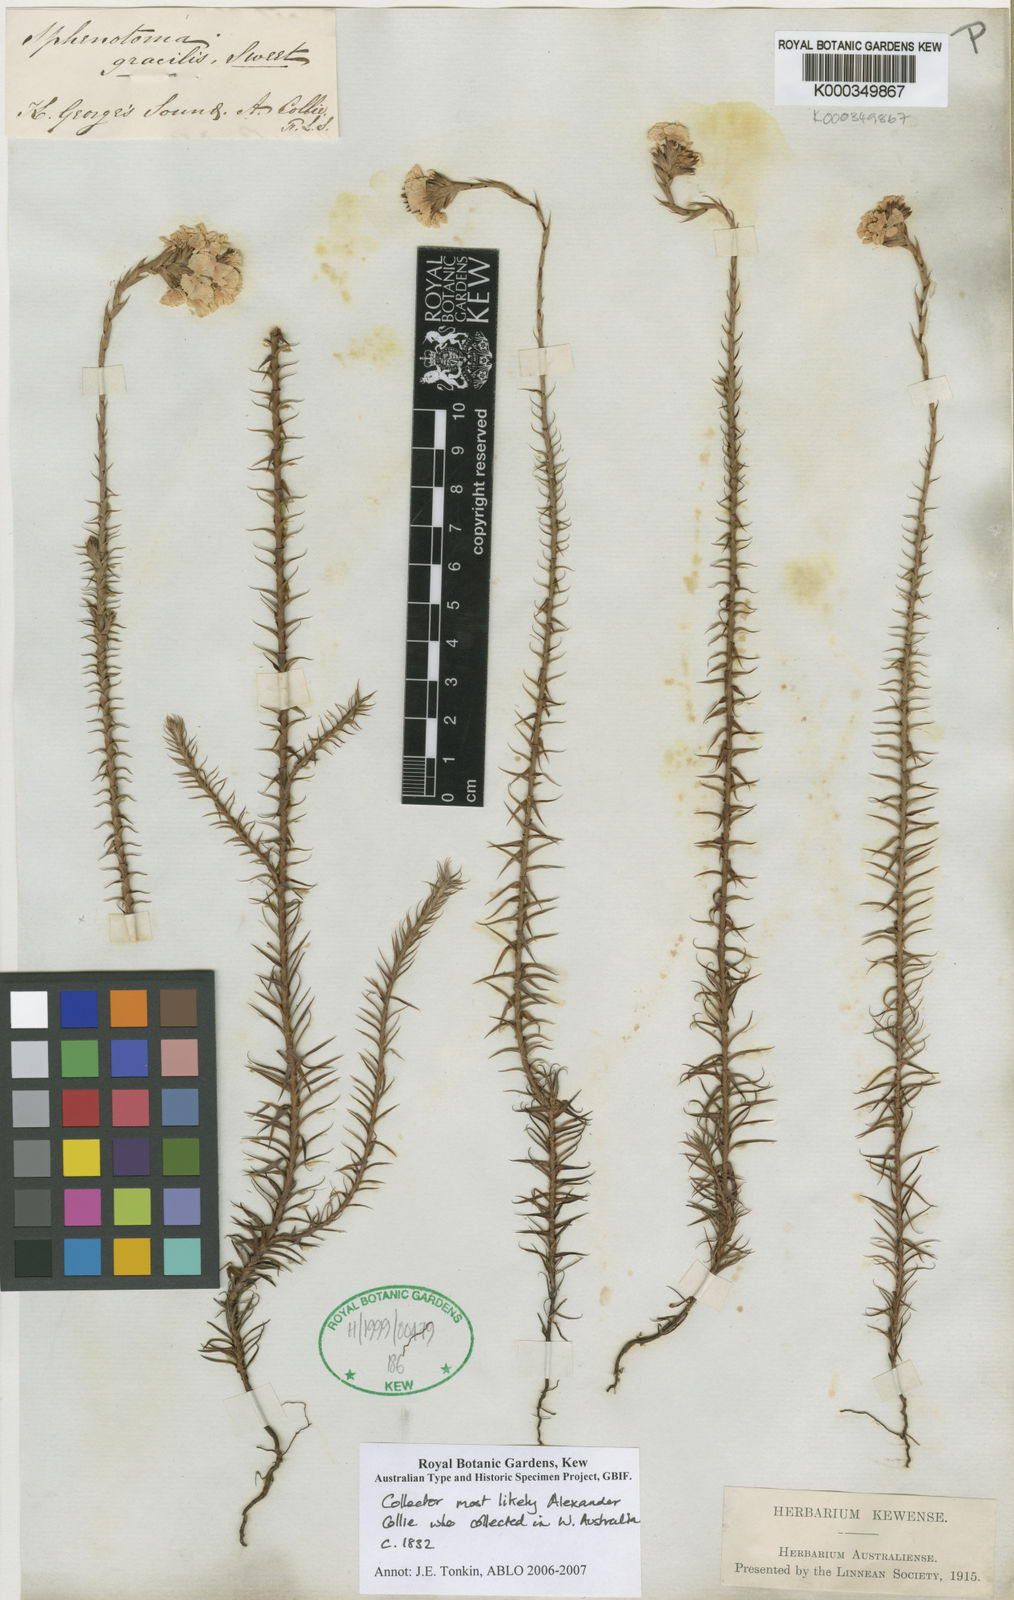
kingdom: Plantae
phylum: Tracheophyta
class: Magnoliopsida
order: Ericales
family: Ericaceae
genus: Sphenotoma
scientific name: Sphenotoma gracilis
